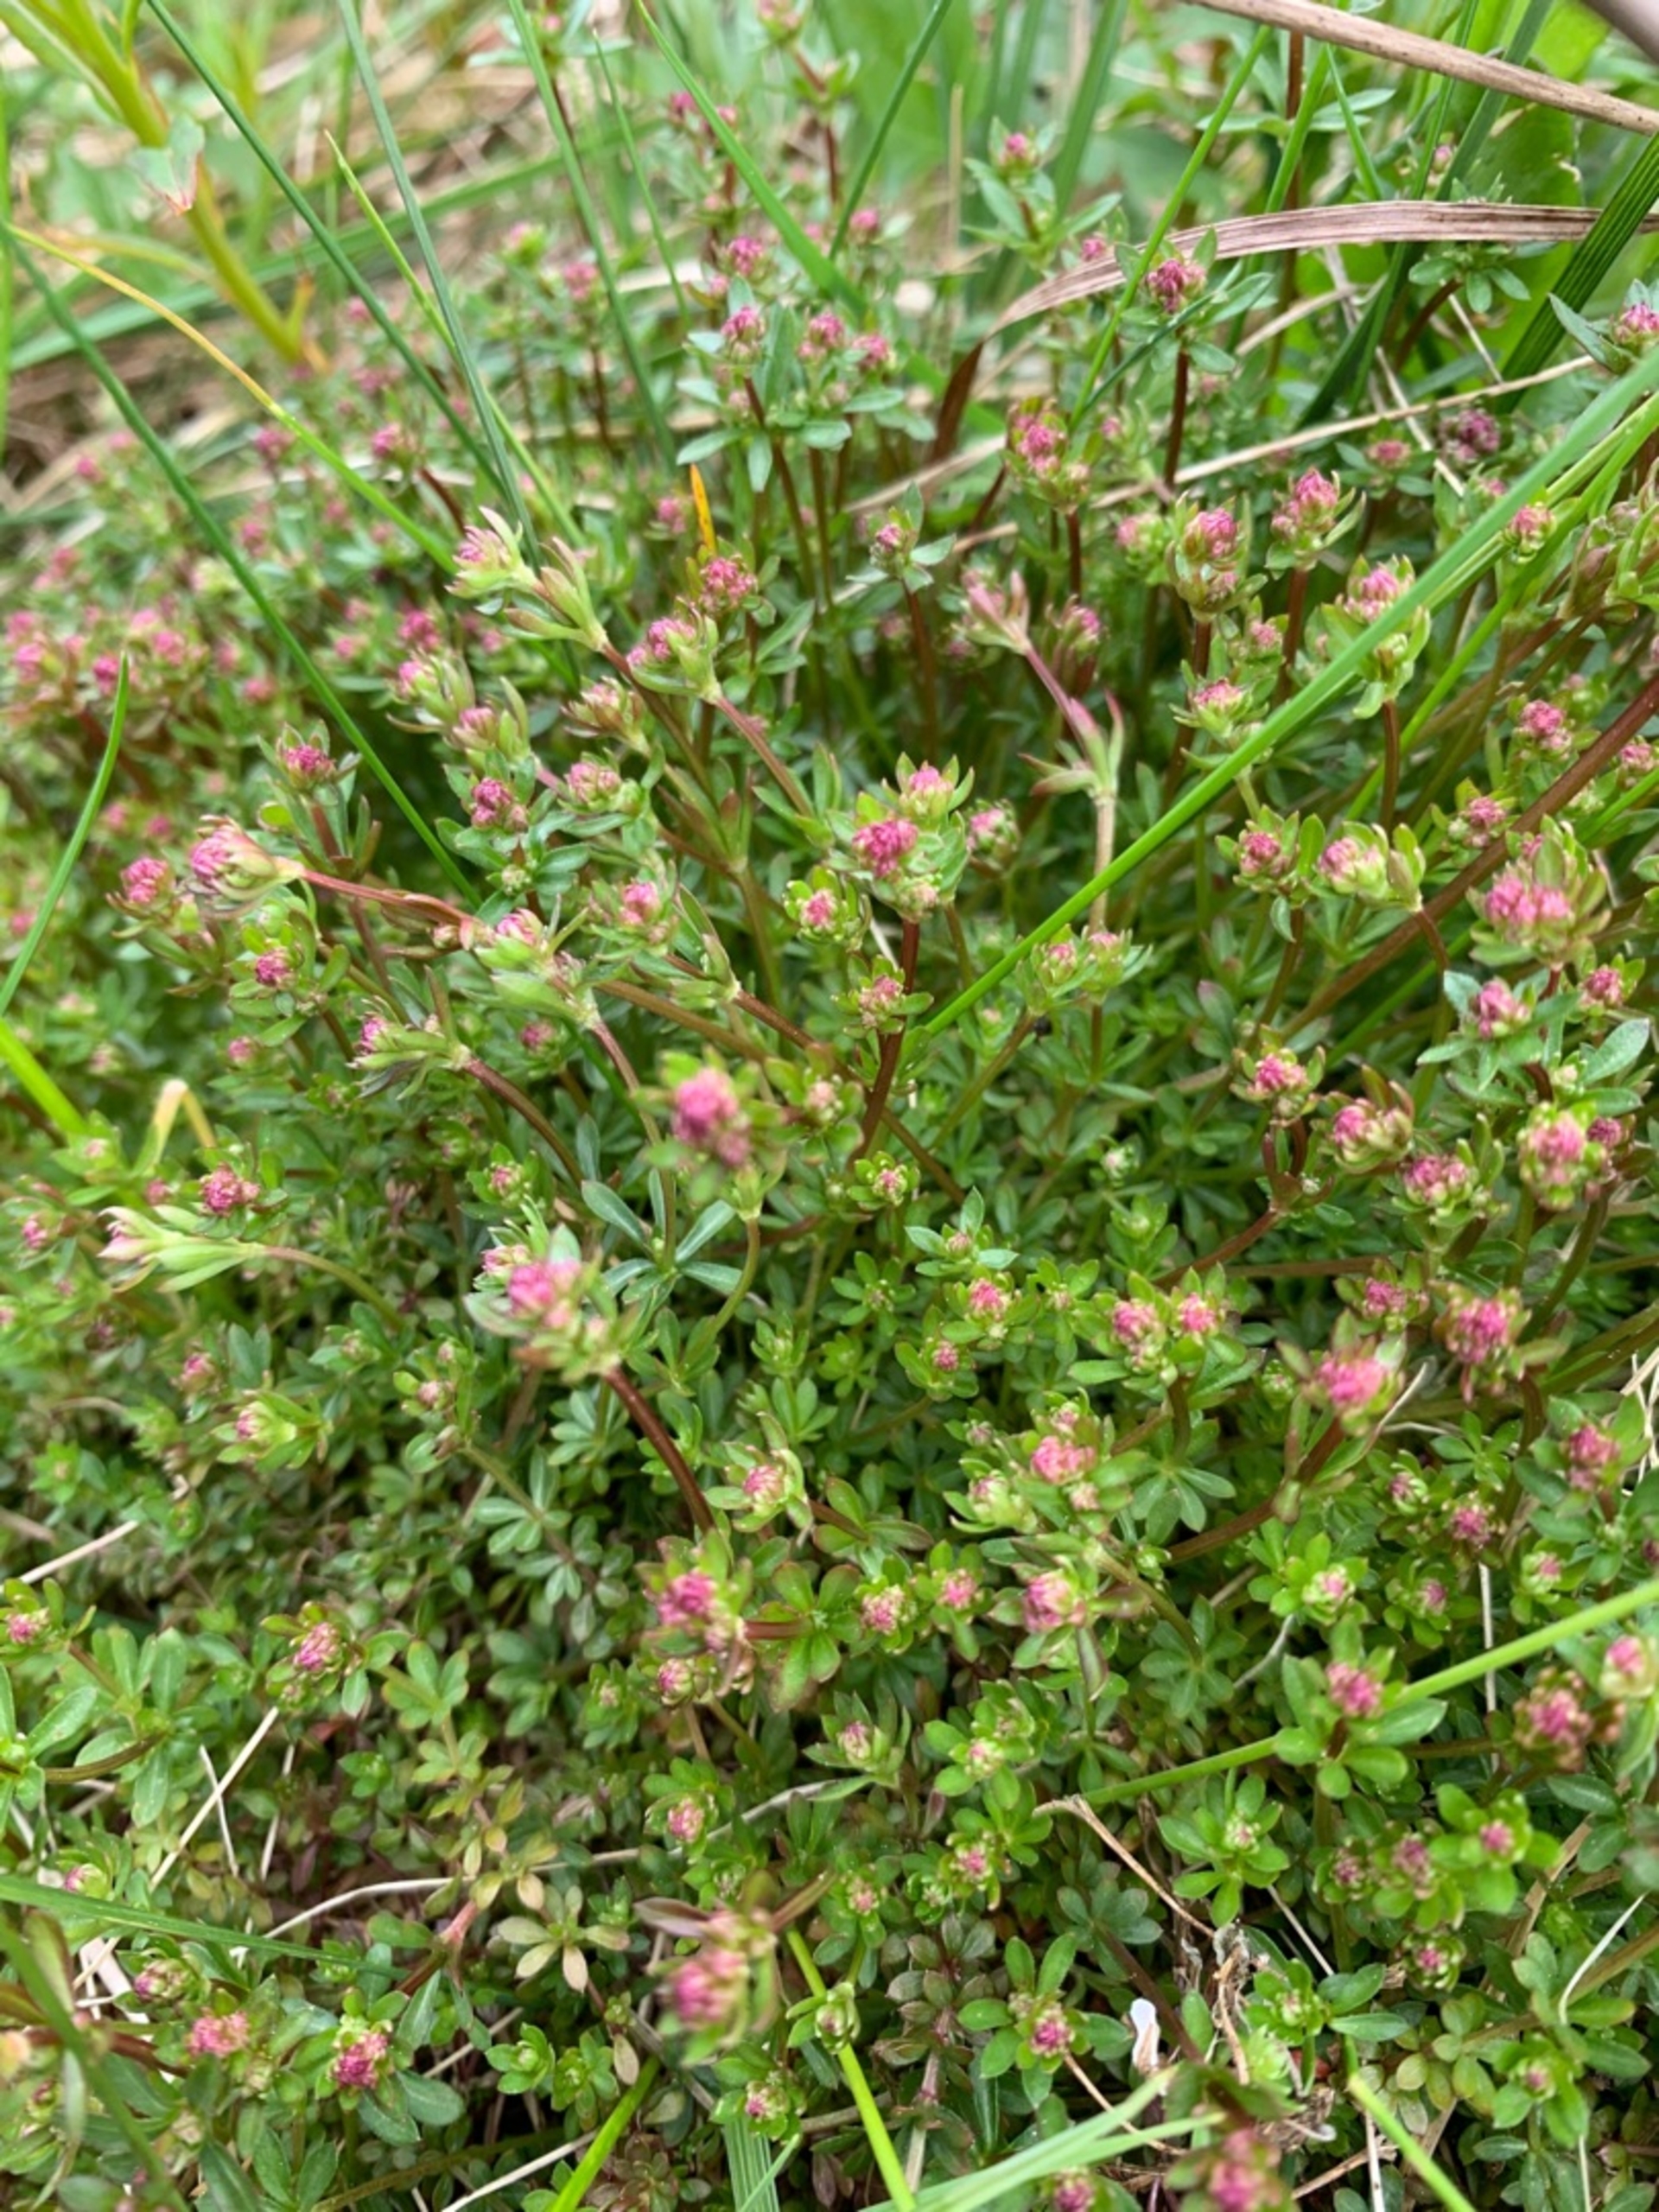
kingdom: Plantae
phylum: Tracheophyta
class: Magnoliopsida
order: Gentianales
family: Rubiaceae
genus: Galium
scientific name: Galium saxatile
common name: Lyng-snerre
